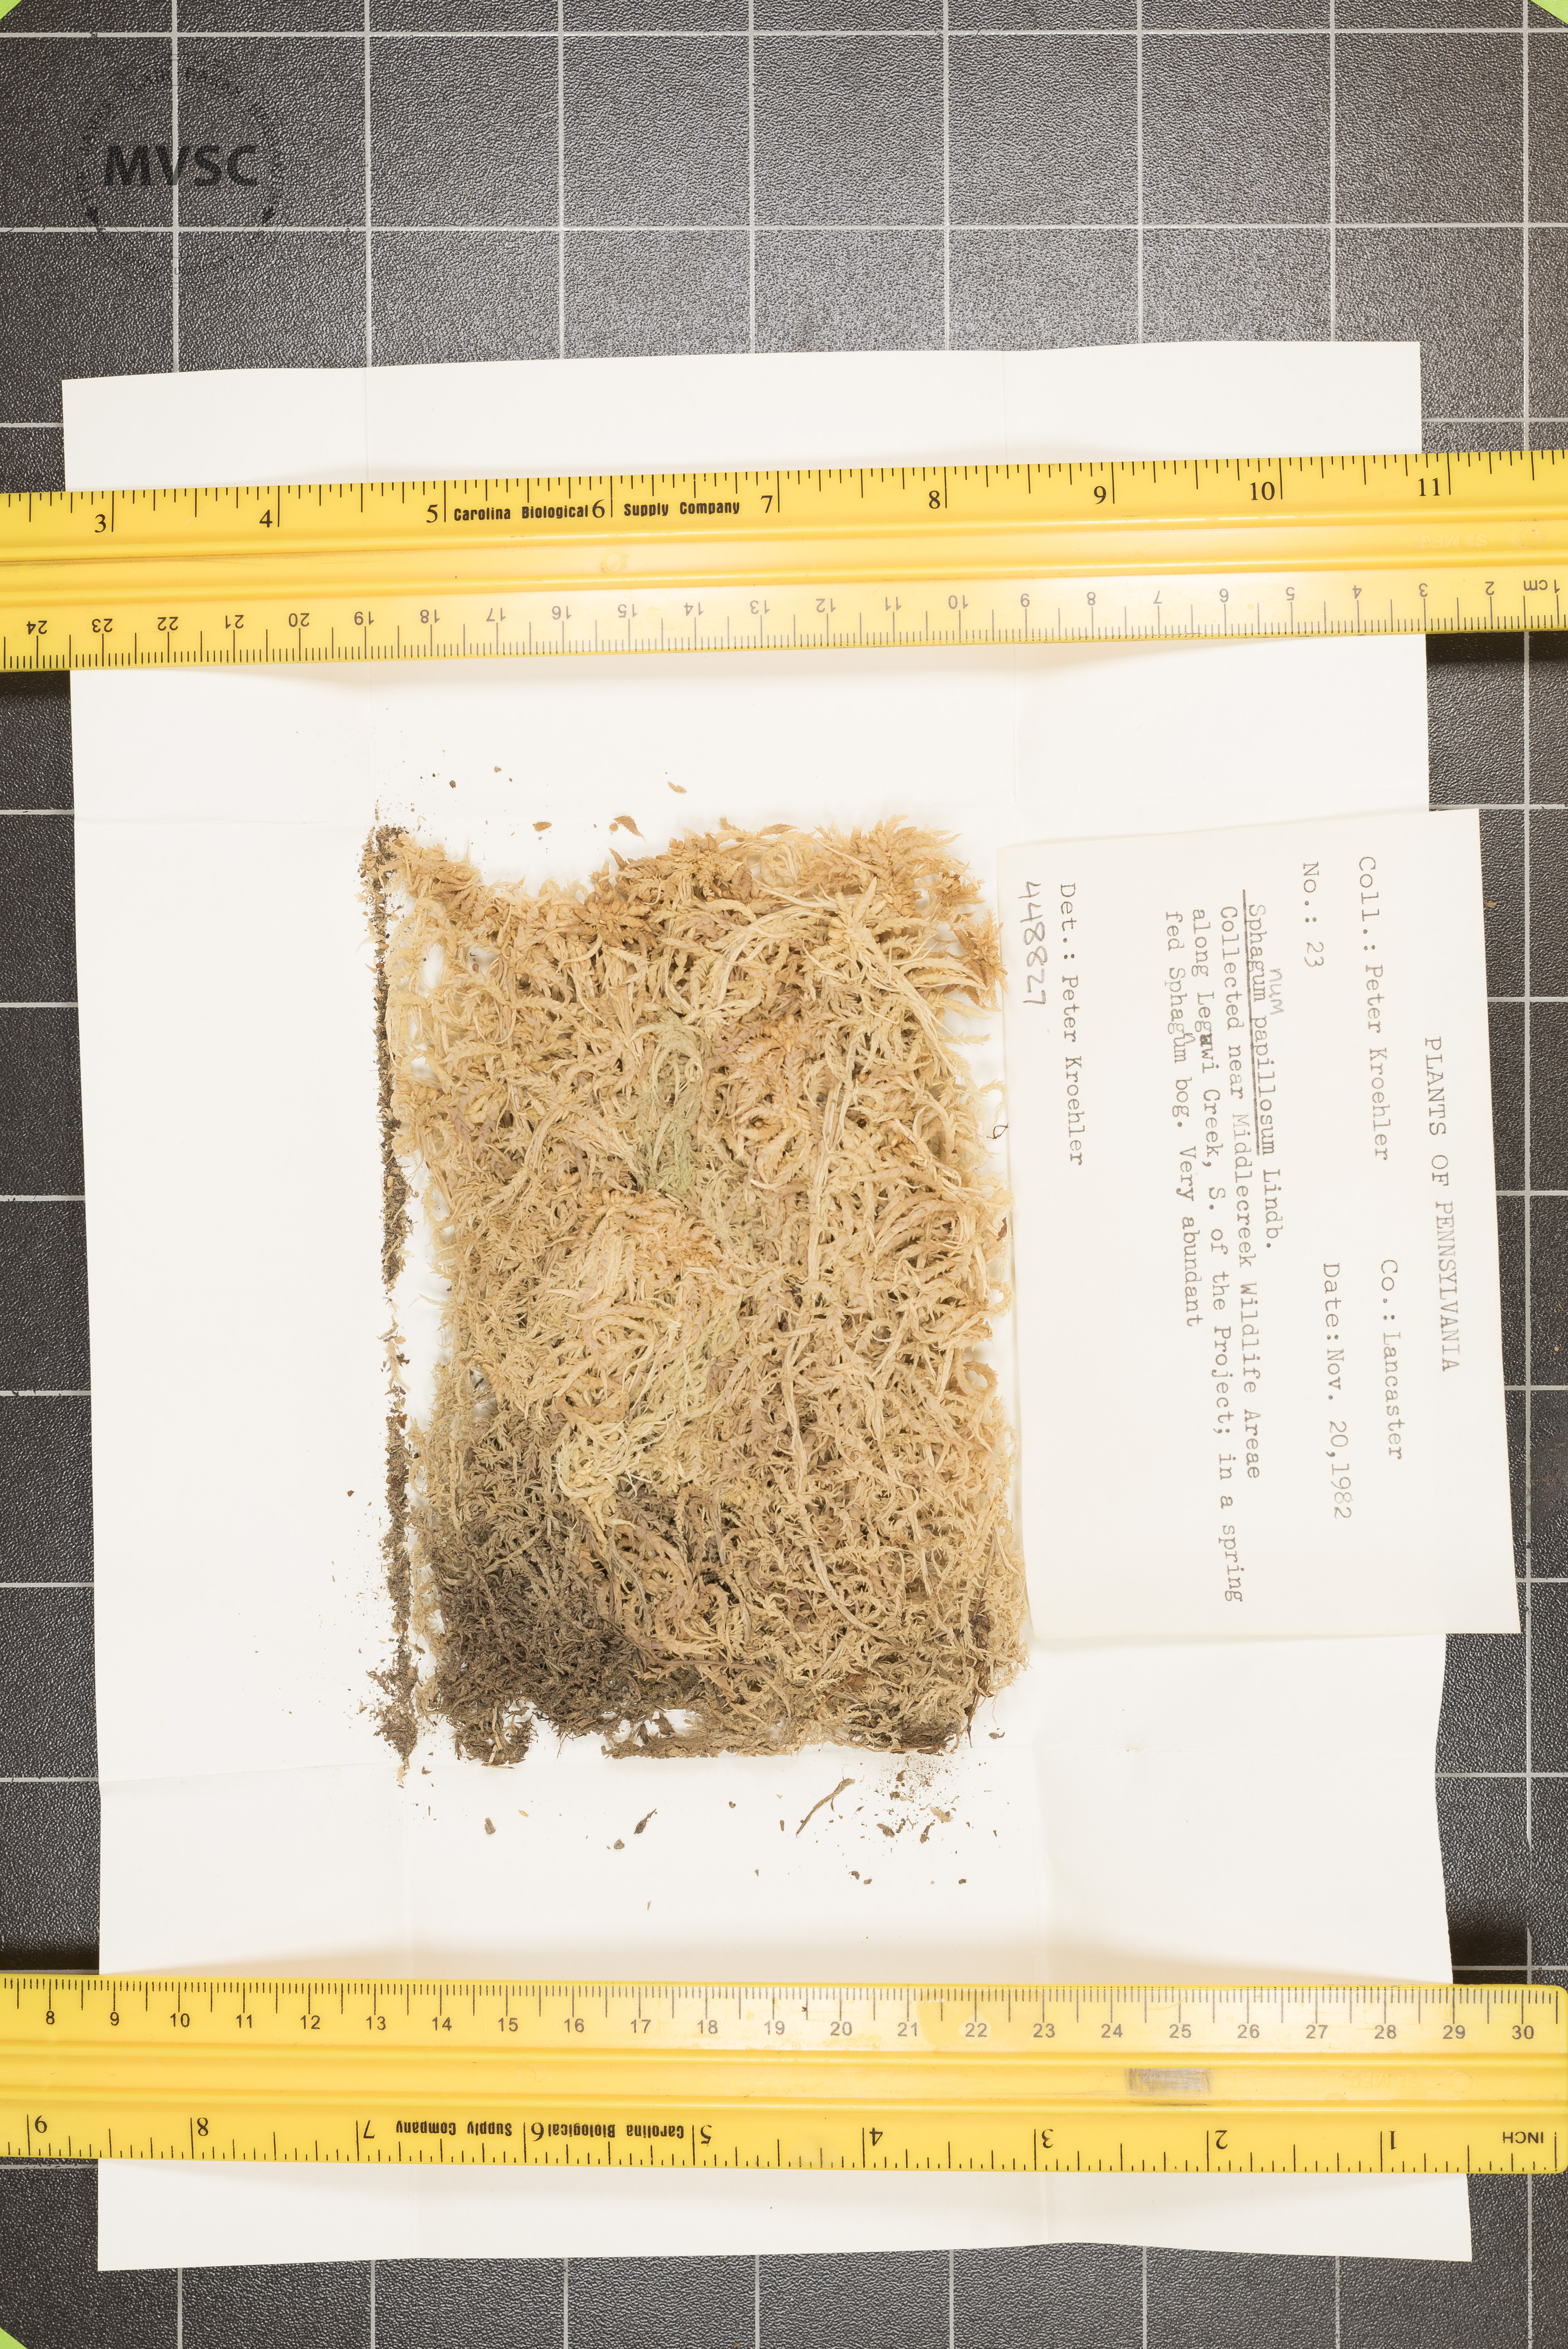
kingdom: Plantae
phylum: Bryophyta
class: Sphagnopsida
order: Sphagnales
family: Sphagnaceae
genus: Sphagnum
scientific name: Sphagnum papillosum
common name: Papillose peat moss
